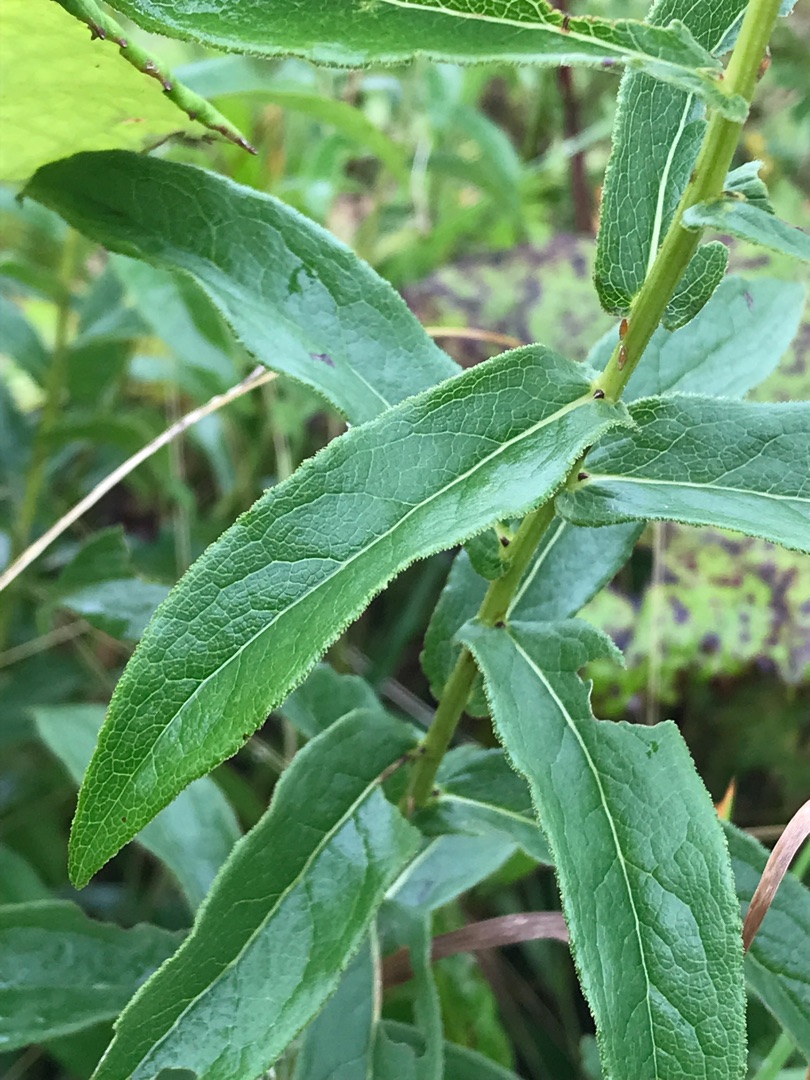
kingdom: Plantae
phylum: Tracheophyta
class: Magnoliopsida
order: Asterales
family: Asteraceae
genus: Pentanema
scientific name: Pentanema salicinum
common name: Pile-alant
